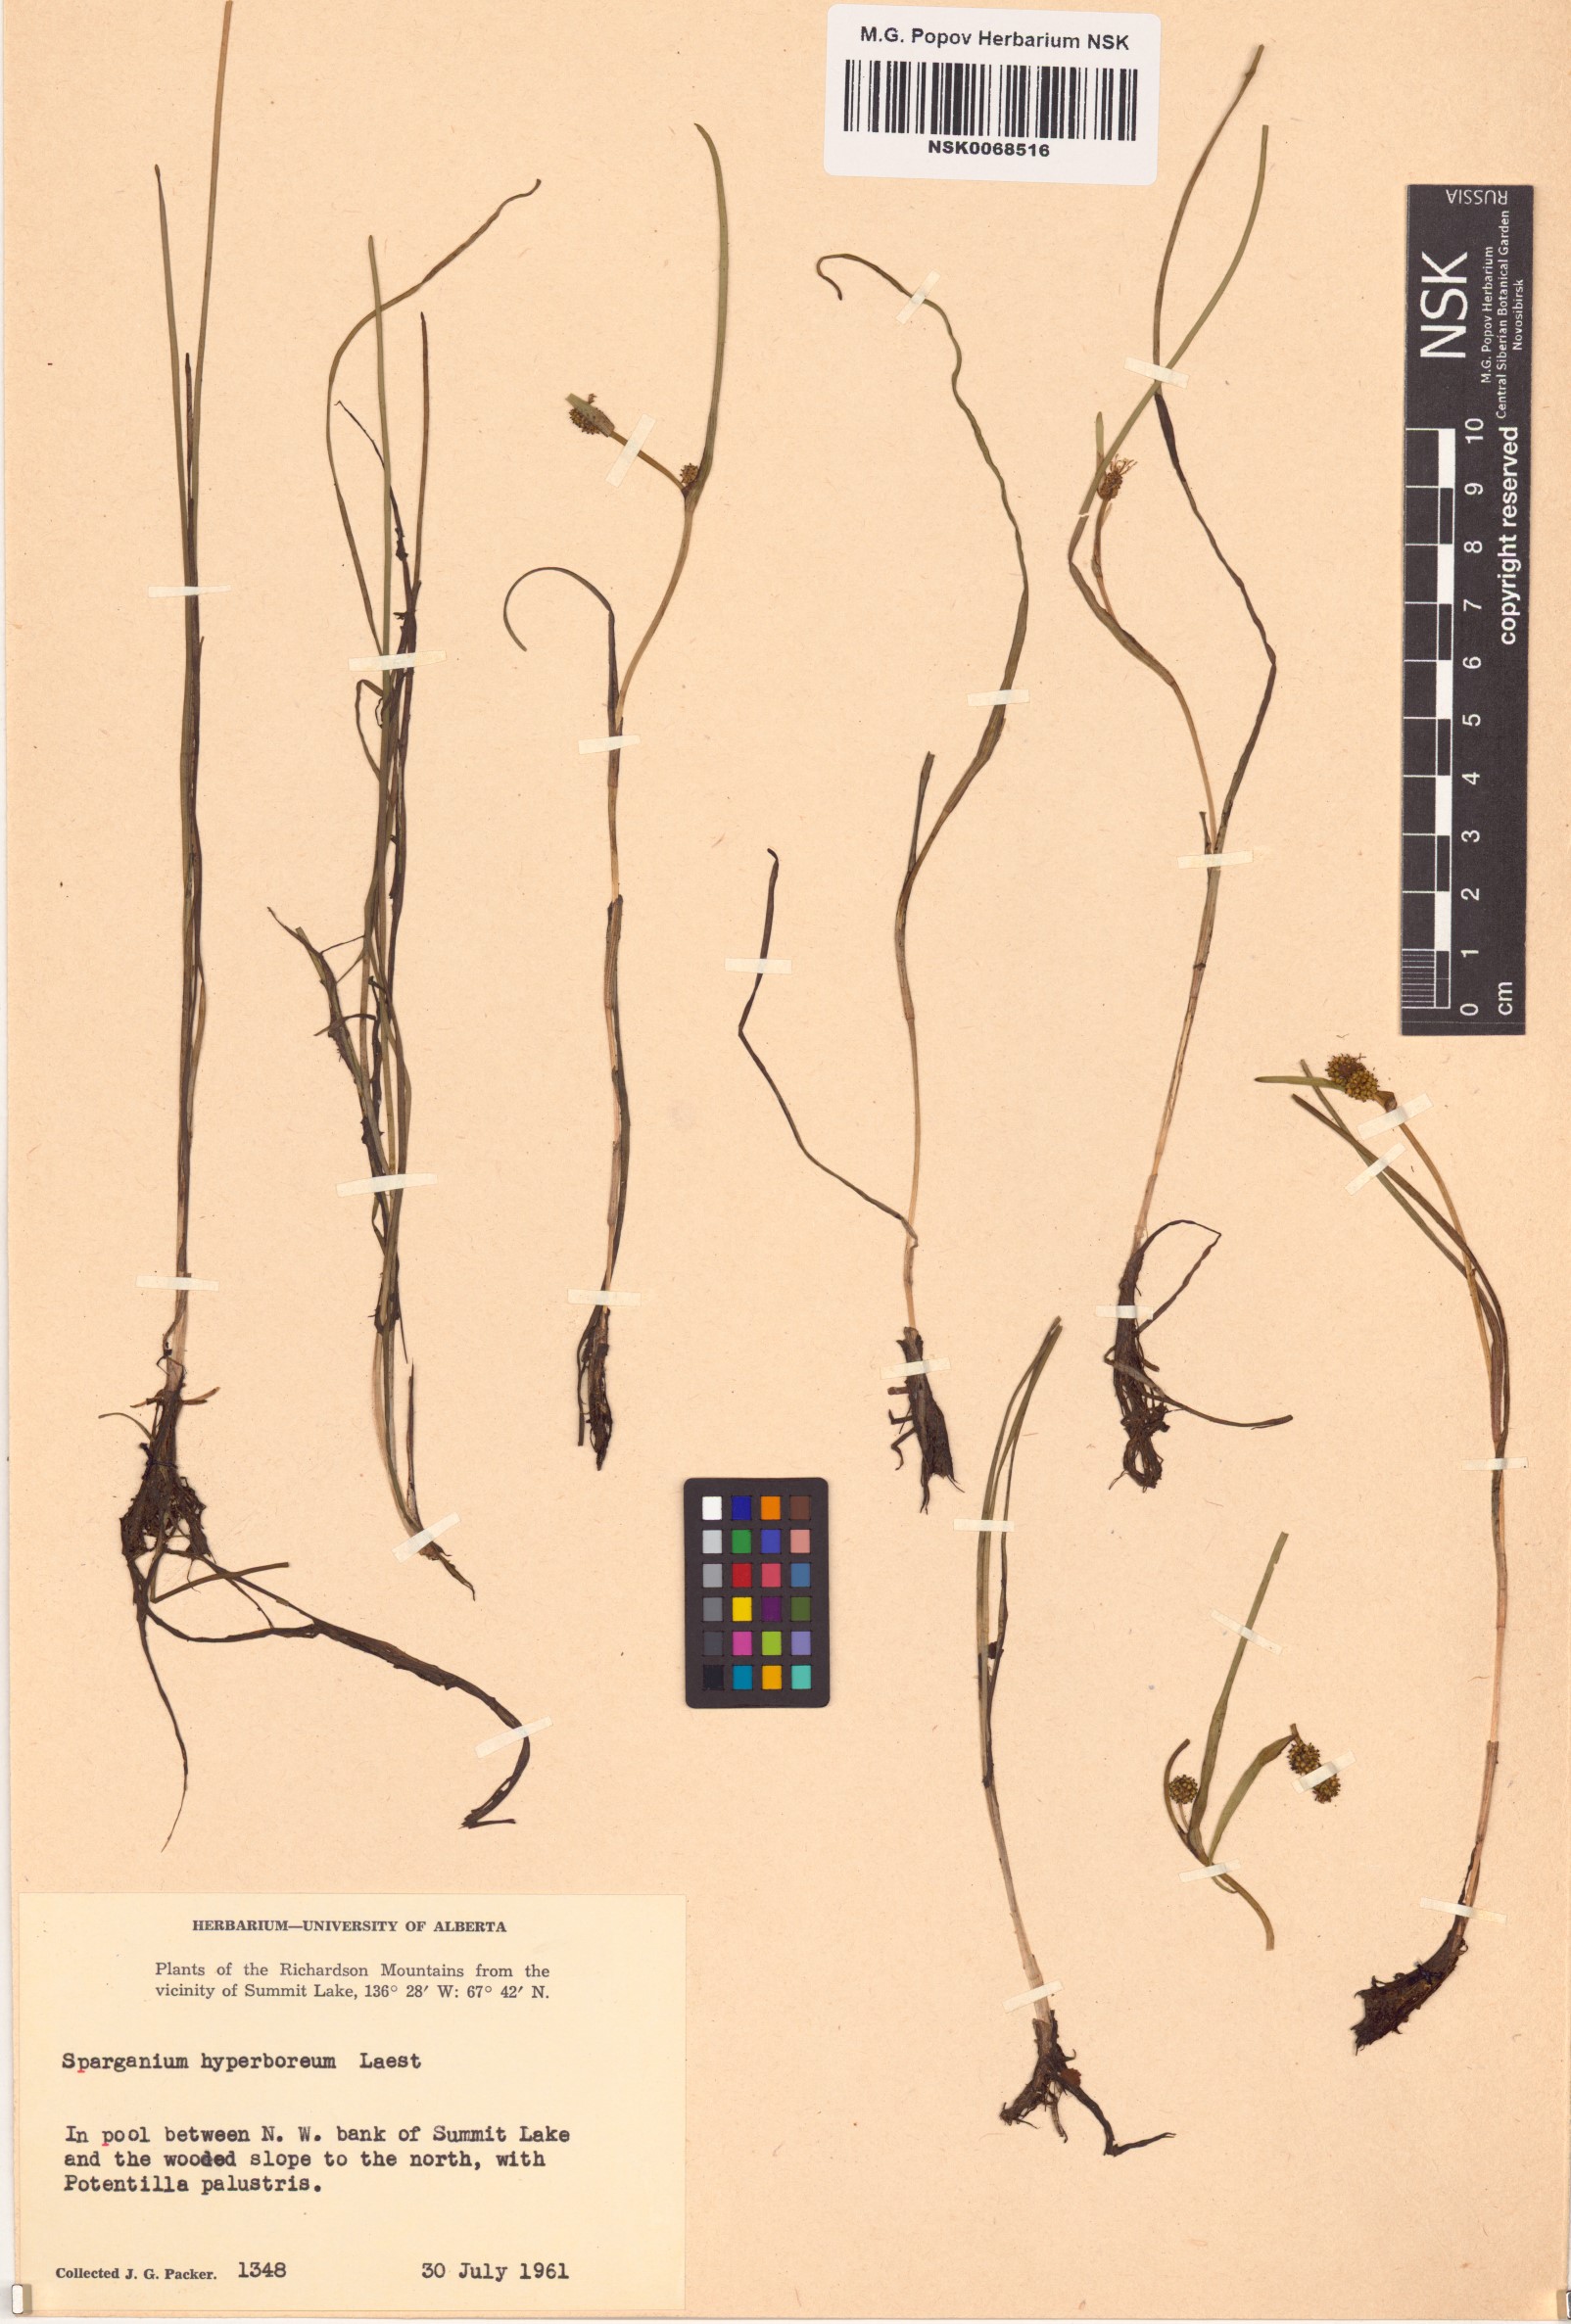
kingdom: Plantae
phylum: Tracheophyta
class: Liliopsida
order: Poales
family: Typhaceae
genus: Sparganium
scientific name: Sparganium hyperboreum
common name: Arctic burreed
